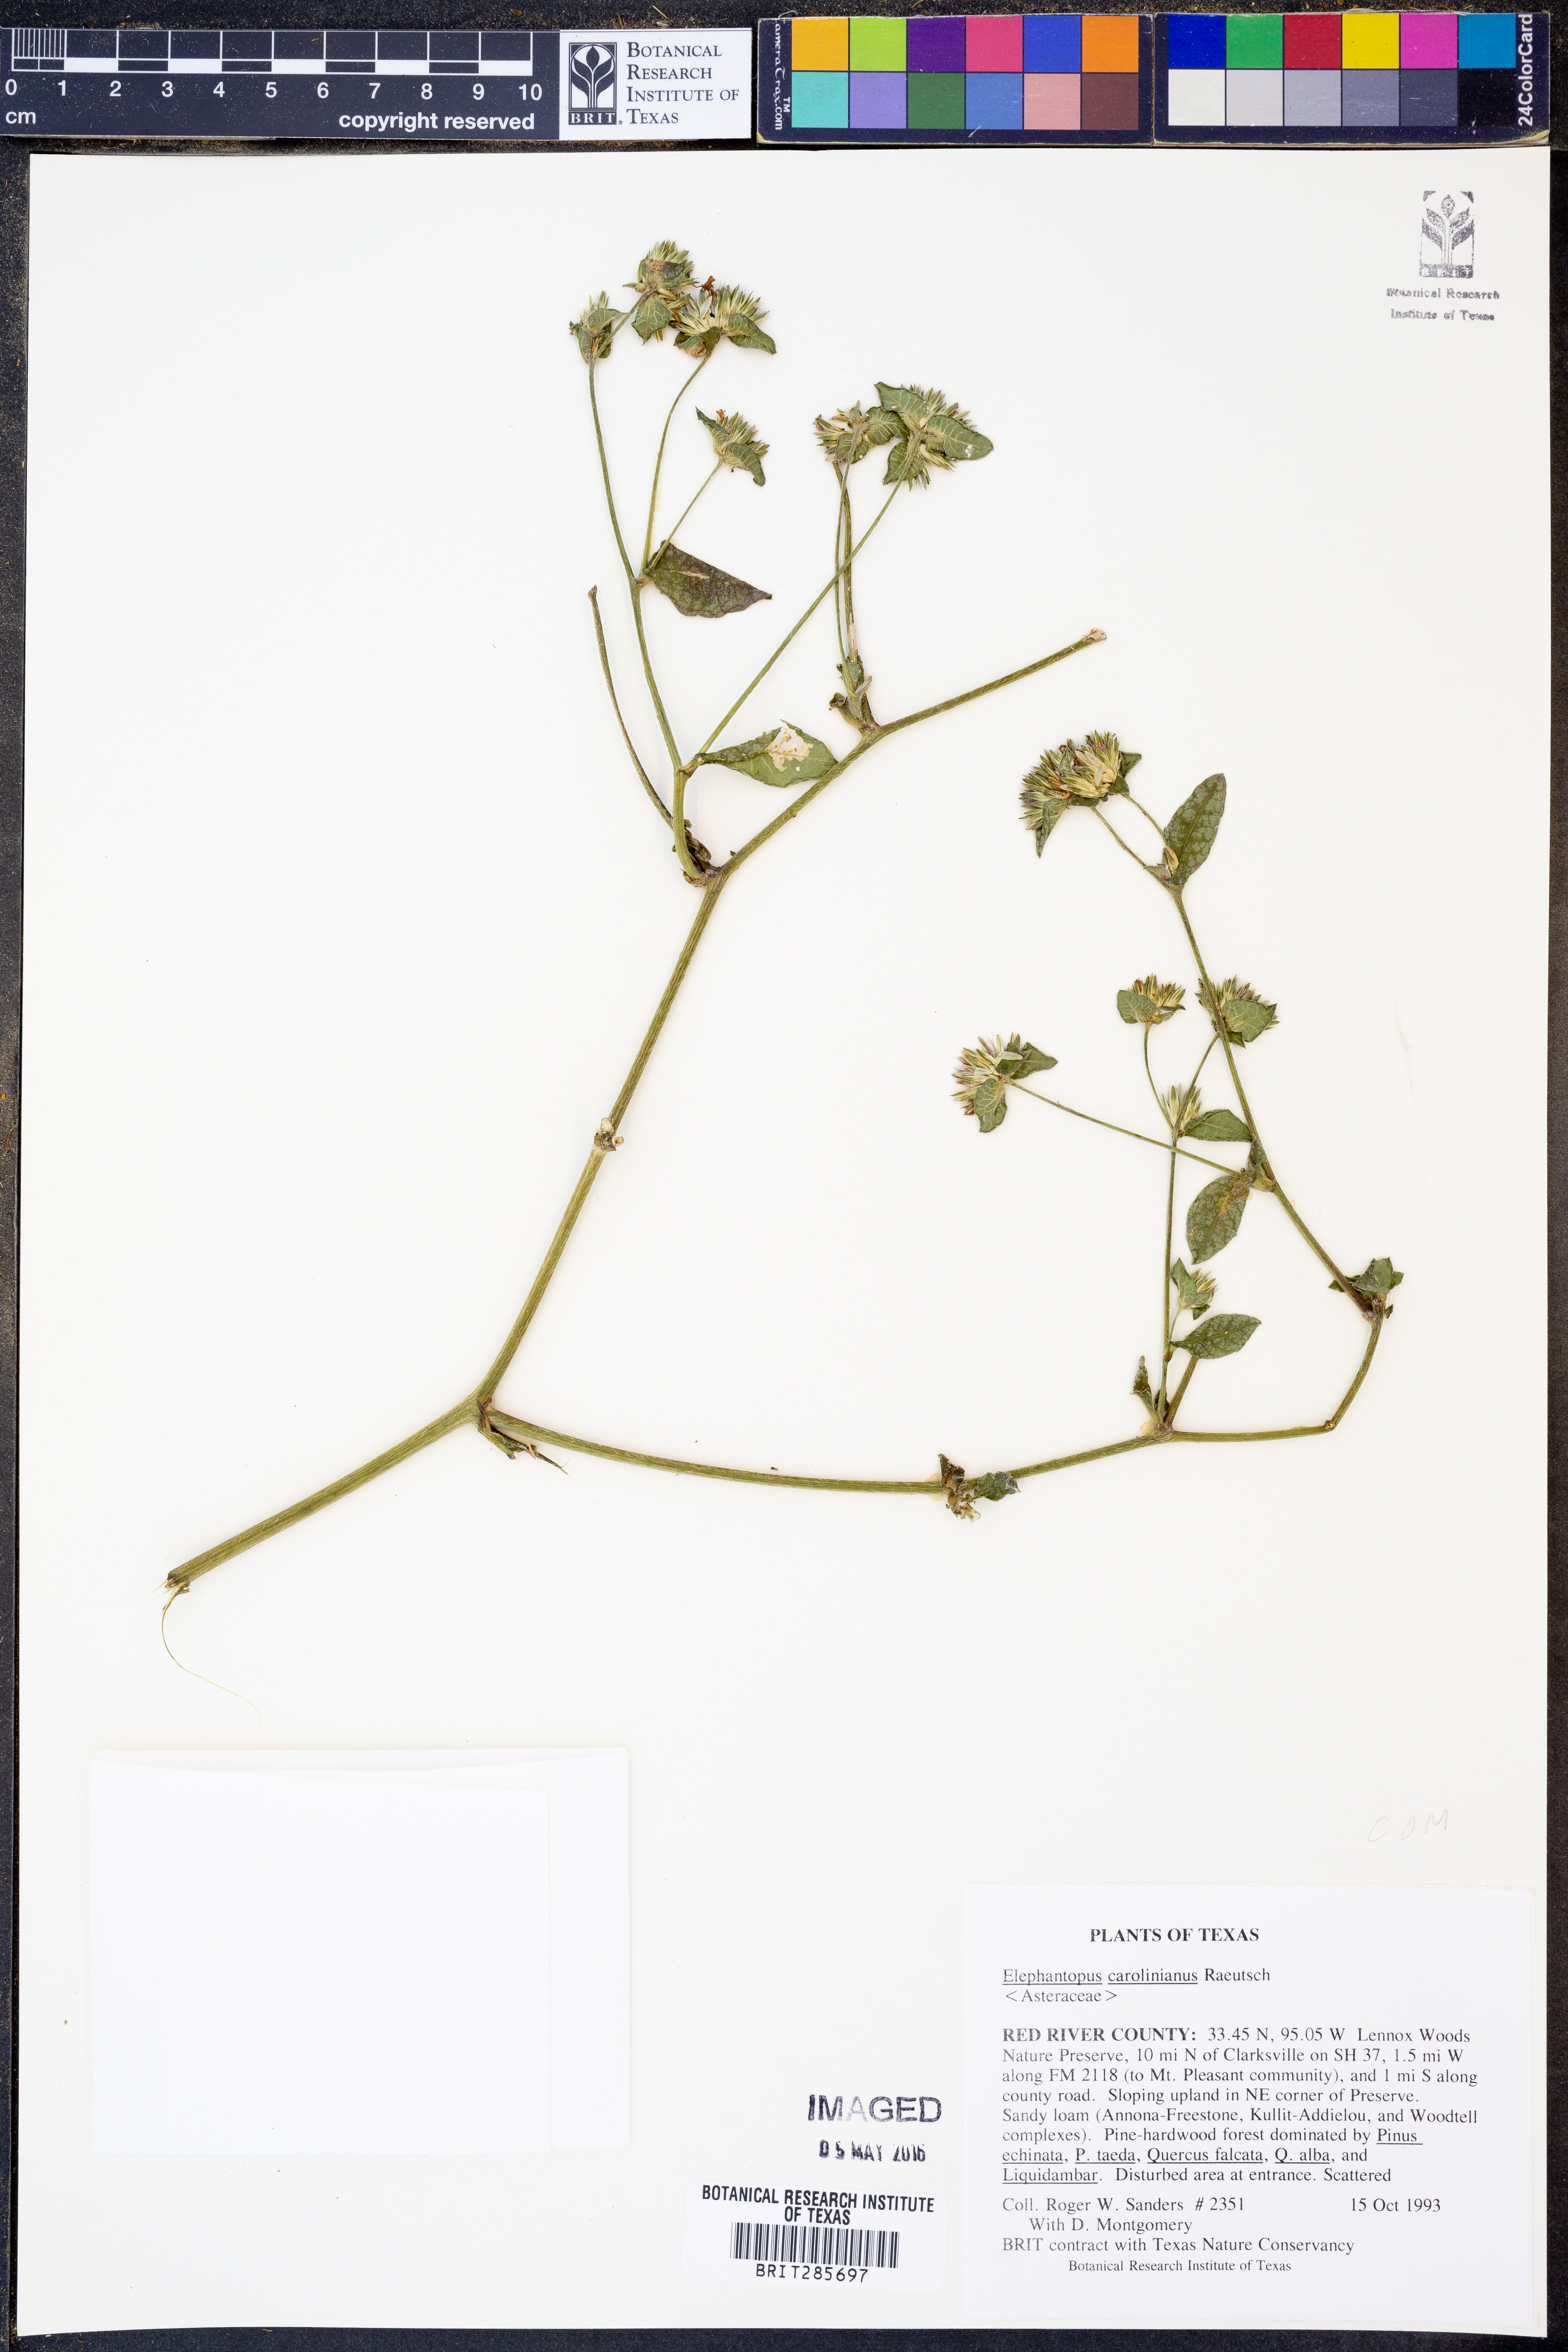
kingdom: Plantae
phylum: Tracheophyta
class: Magnoliopsida
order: Asterales
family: Asteraceae
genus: Elephantopus
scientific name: Elephantopus carolinianus
